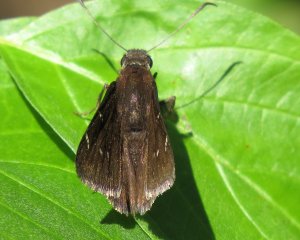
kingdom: Animalia
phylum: Arthropoda
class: Insecta
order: Lepidoptera
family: Hesperiidae
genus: Autochton
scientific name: Autochton
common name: Northern Cloudywing
